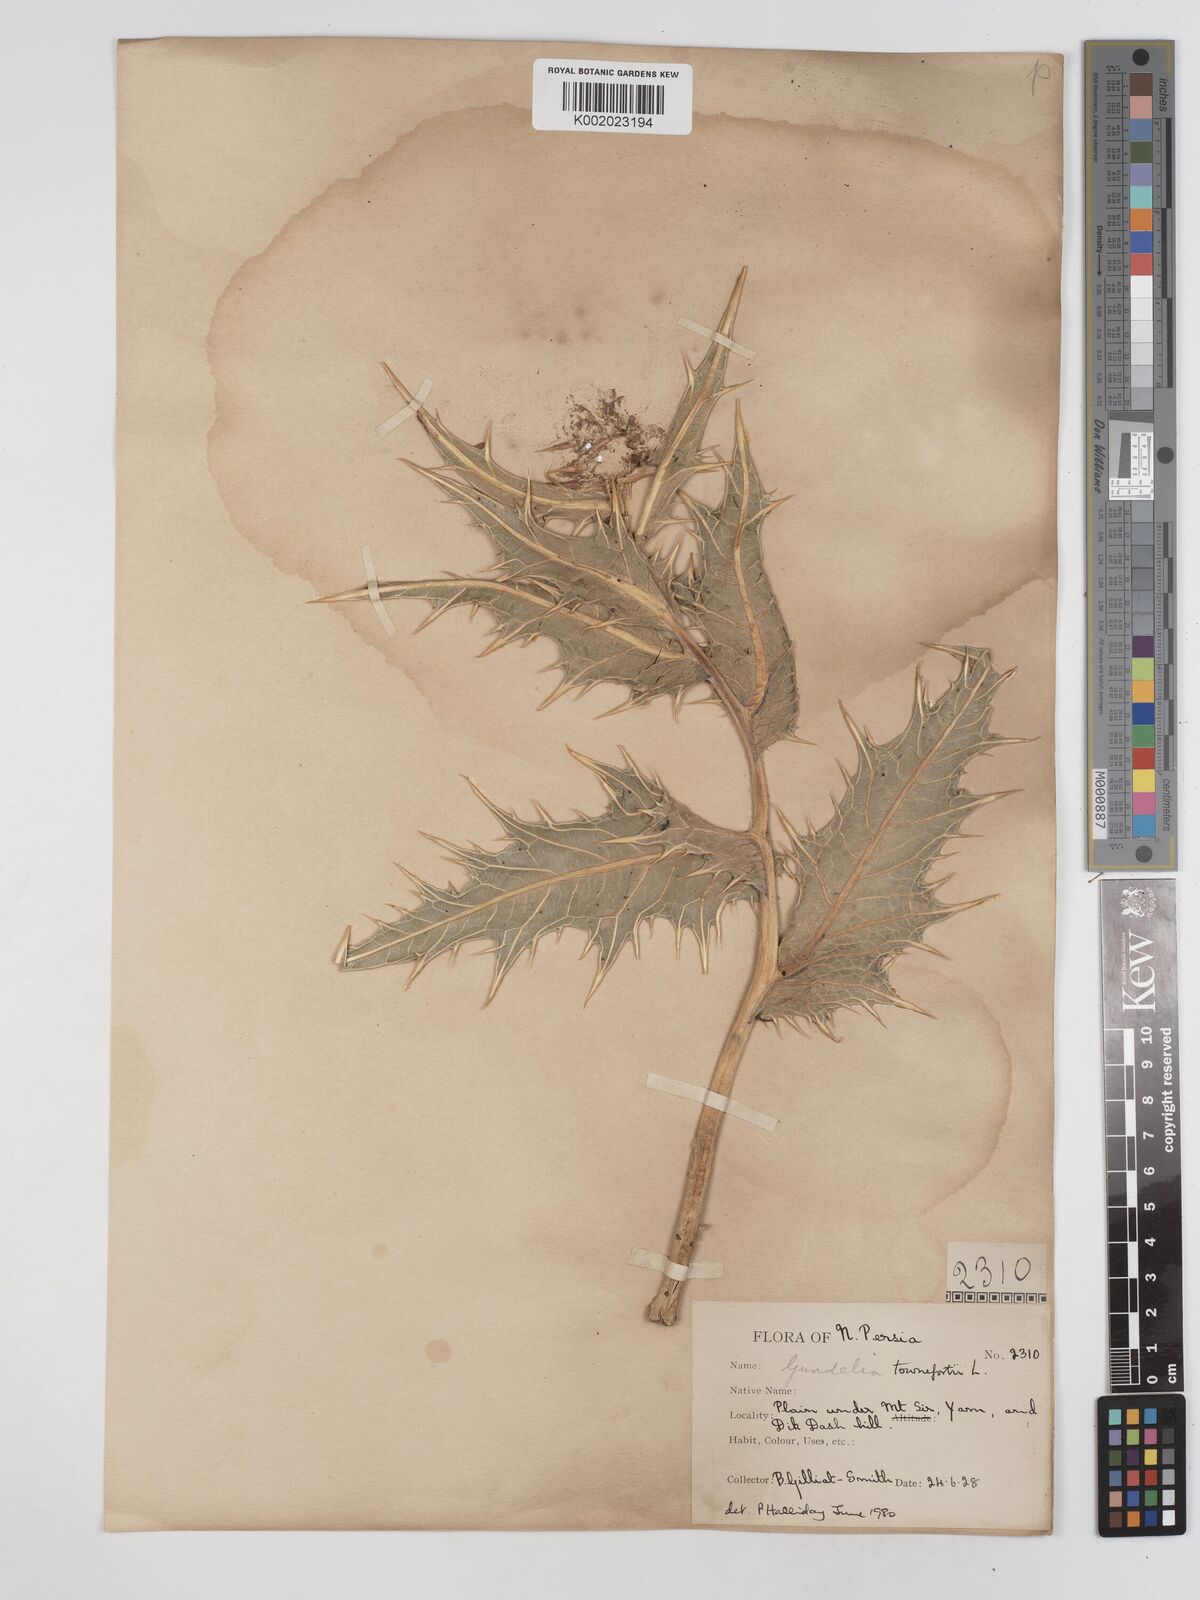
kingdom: Plantae
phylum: Tracheophyta
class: Magnoliopsida
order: Asterales
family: Asteraceae
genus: Gundelia
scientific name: Gundelia tournefortii
